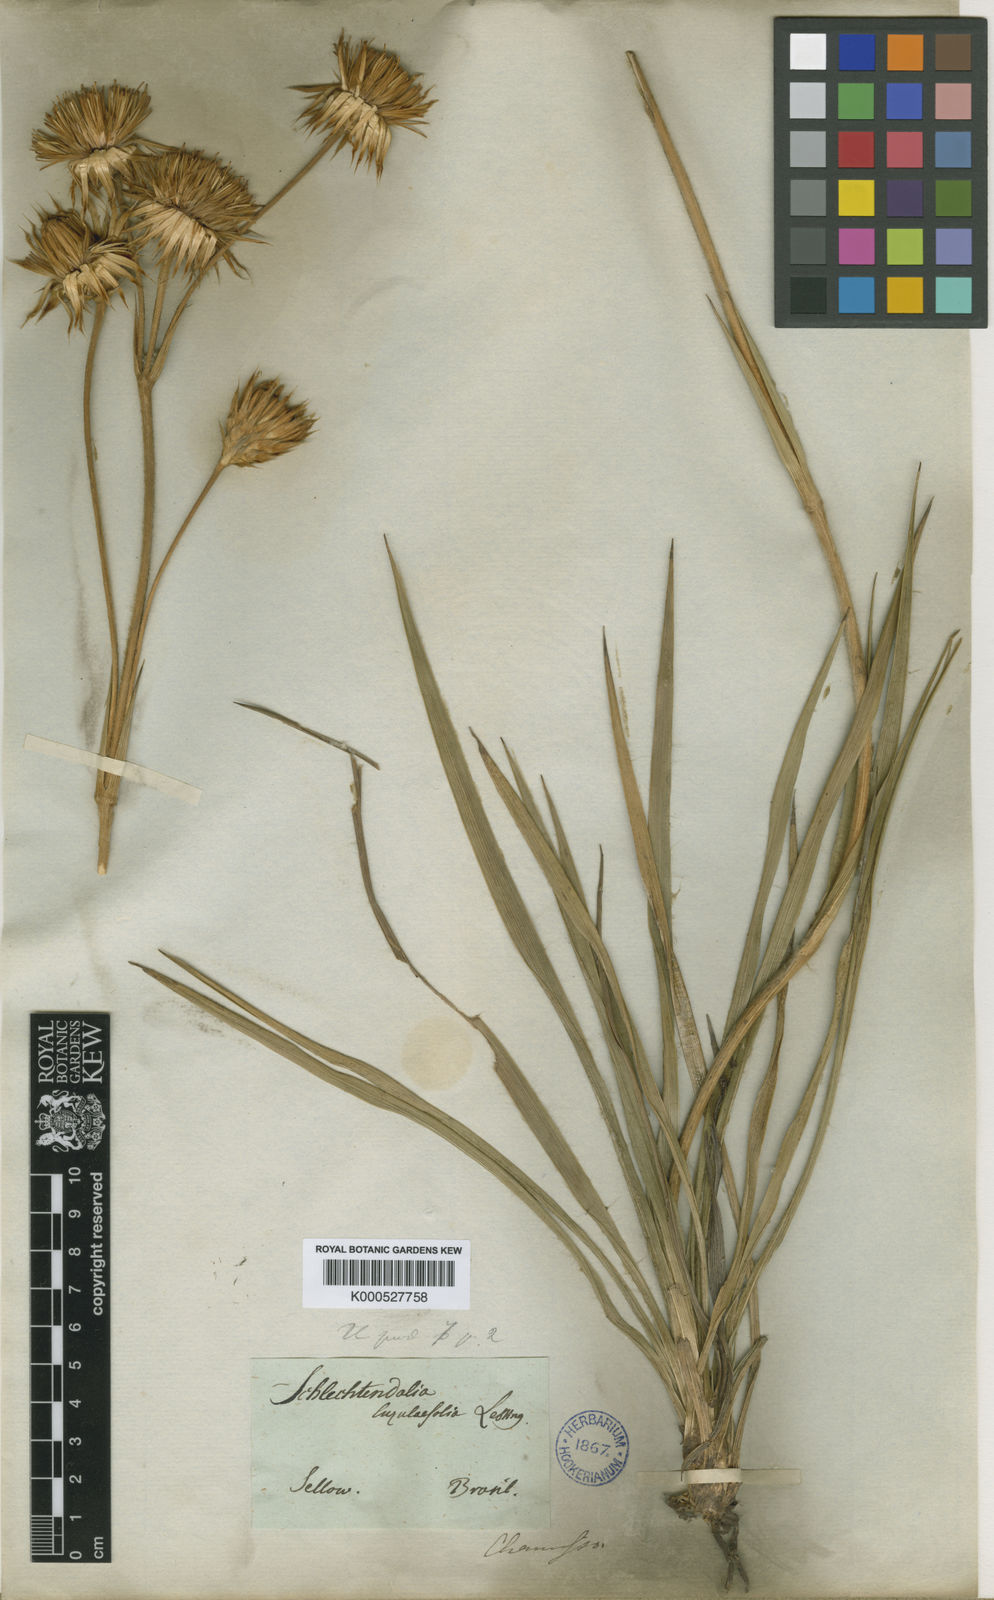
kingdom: Plantae
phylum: Tracheophyta
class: Magnoliopsida
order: Asterales
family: Asteraceae
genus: Schlechtendalia
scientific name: Schlechtendalia luzulifolia
